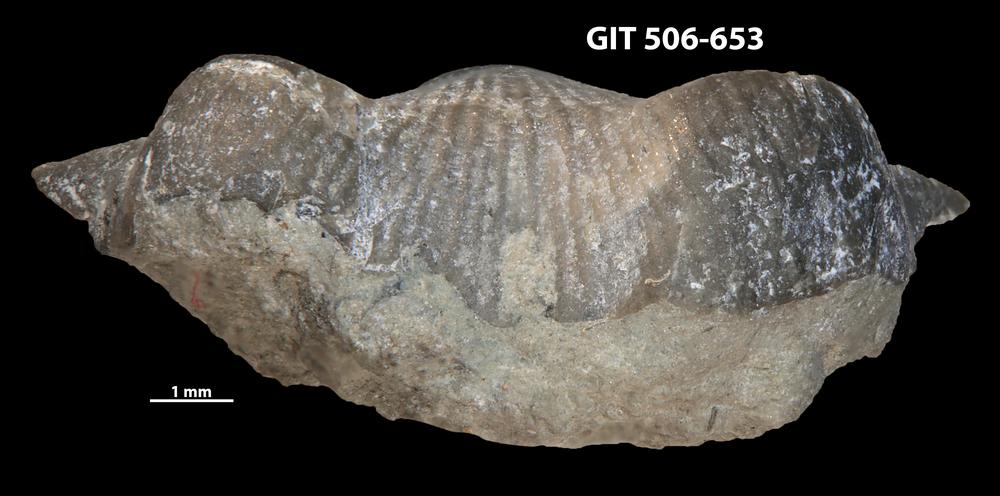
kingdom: Animalia
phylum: Brachiopoda
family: Strophomenidae
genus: Leptaena
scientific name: Leptaena altera
